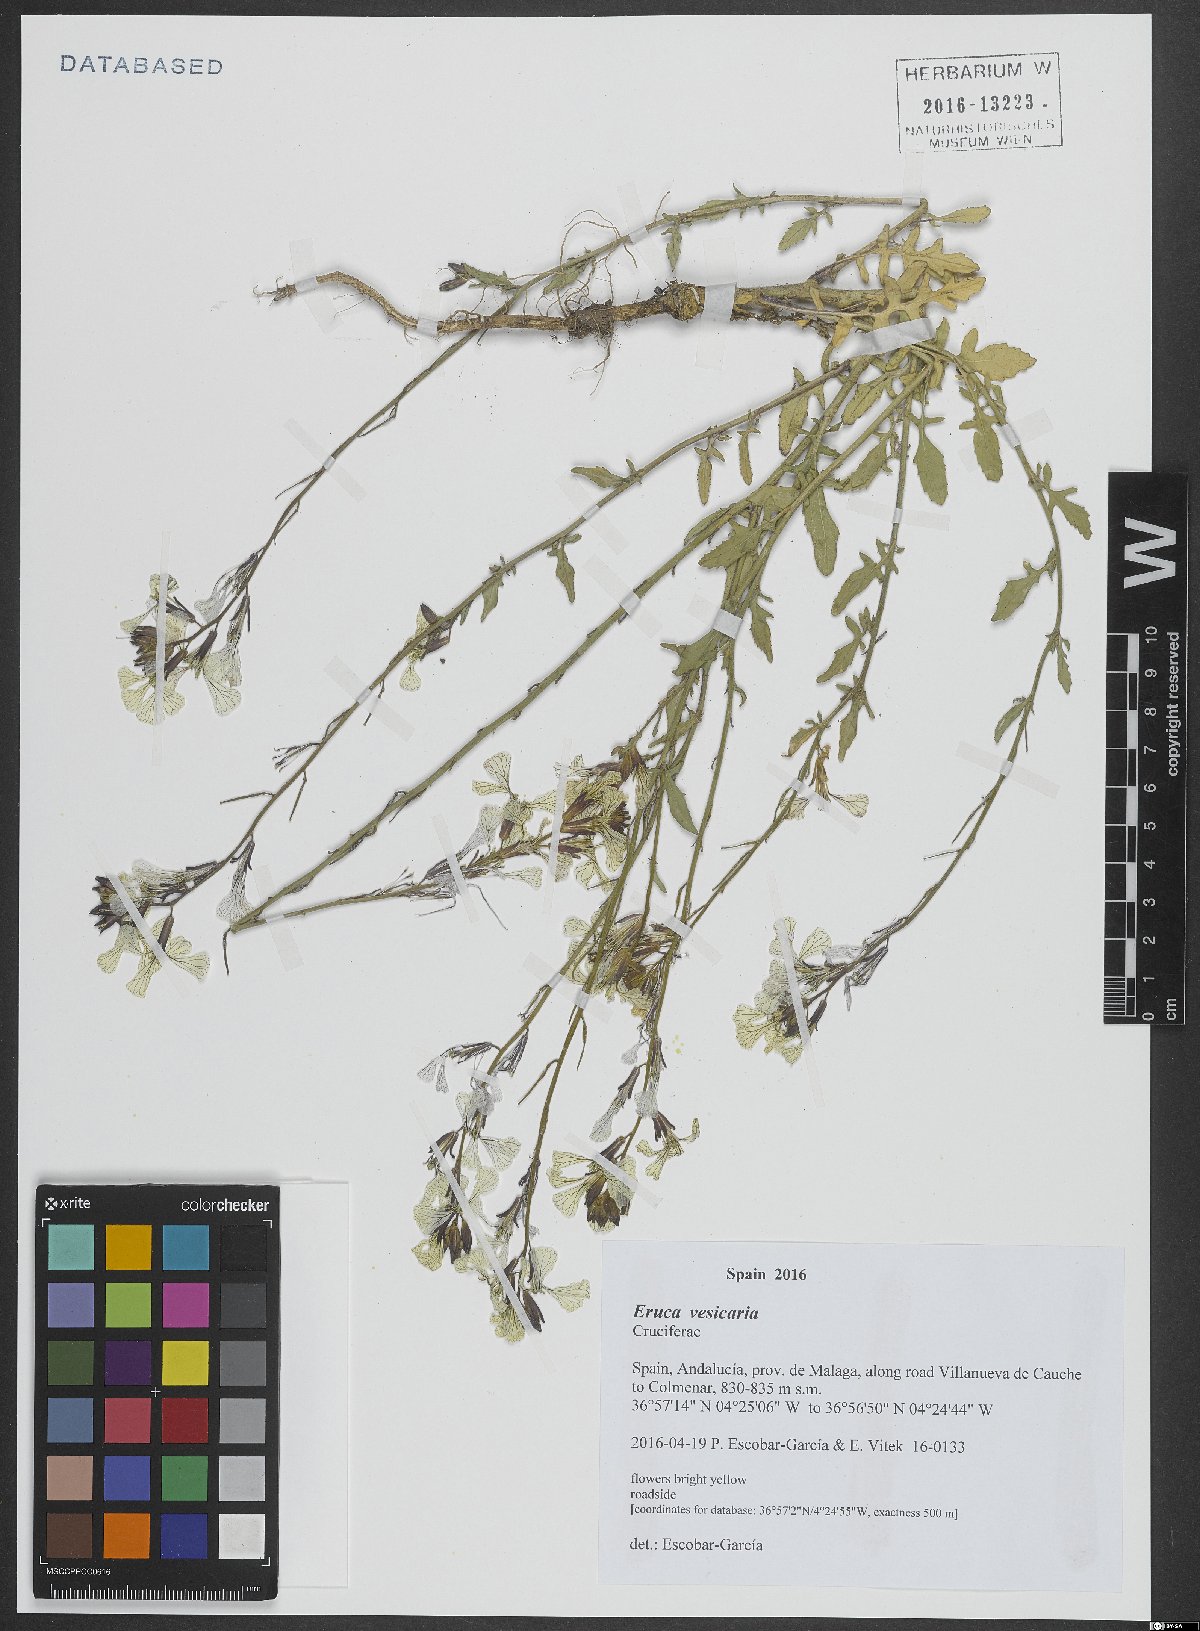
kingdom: Plantae
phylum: Tracheophyta
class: Magnoliopsida
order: Brassicales
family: Brassicaceae
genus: Eruca
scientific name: Eruca vesicaria
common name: Garden rocket
